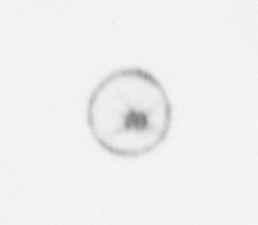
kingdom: Chromista
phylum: Ochrophyta
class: Bacillariophyceae
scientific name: Bacillariophyceae
